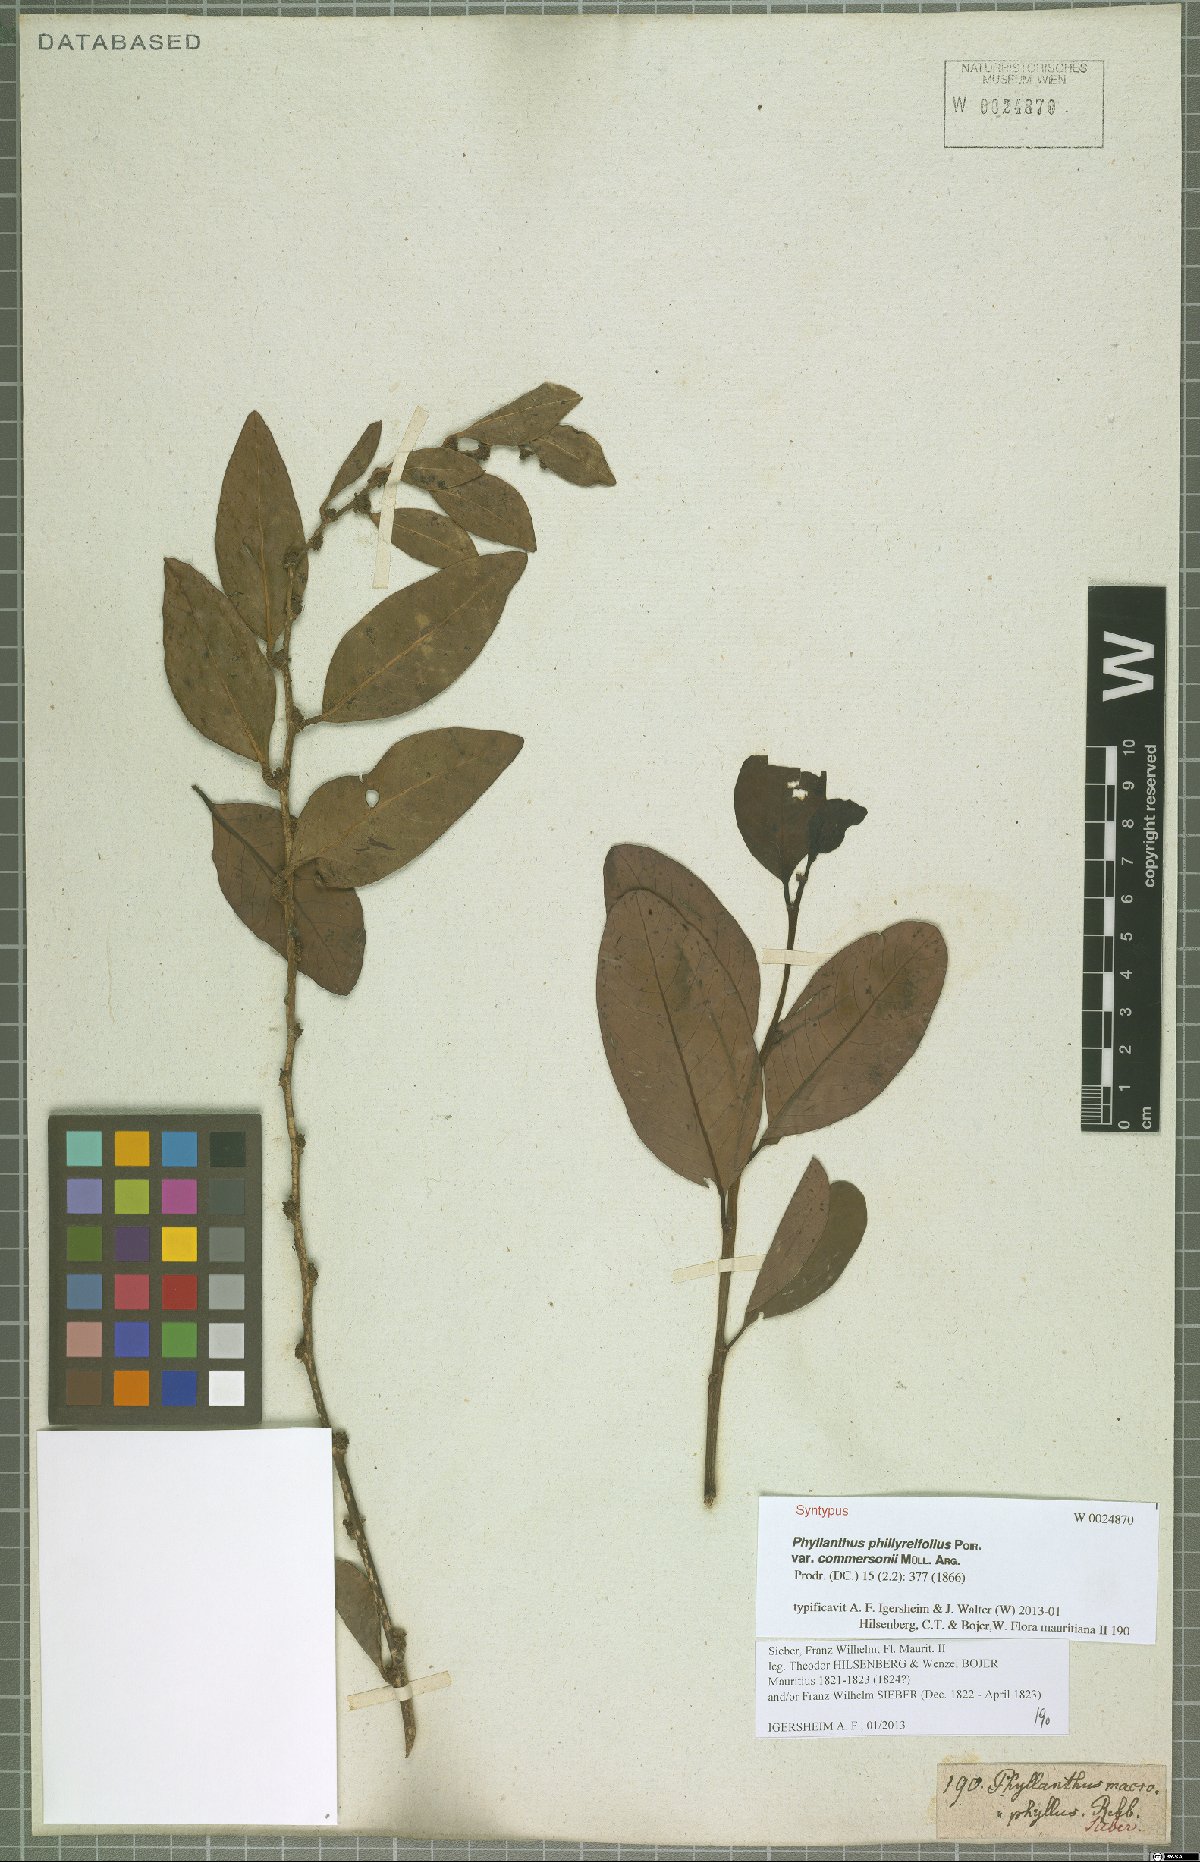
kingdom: Plantae
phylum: Tracheophyta
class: Magnoliopsida
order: Malpighiales
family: Phyllanthaceae
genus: Phyllanthus
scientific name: Phyllanthus phillyreifolius
